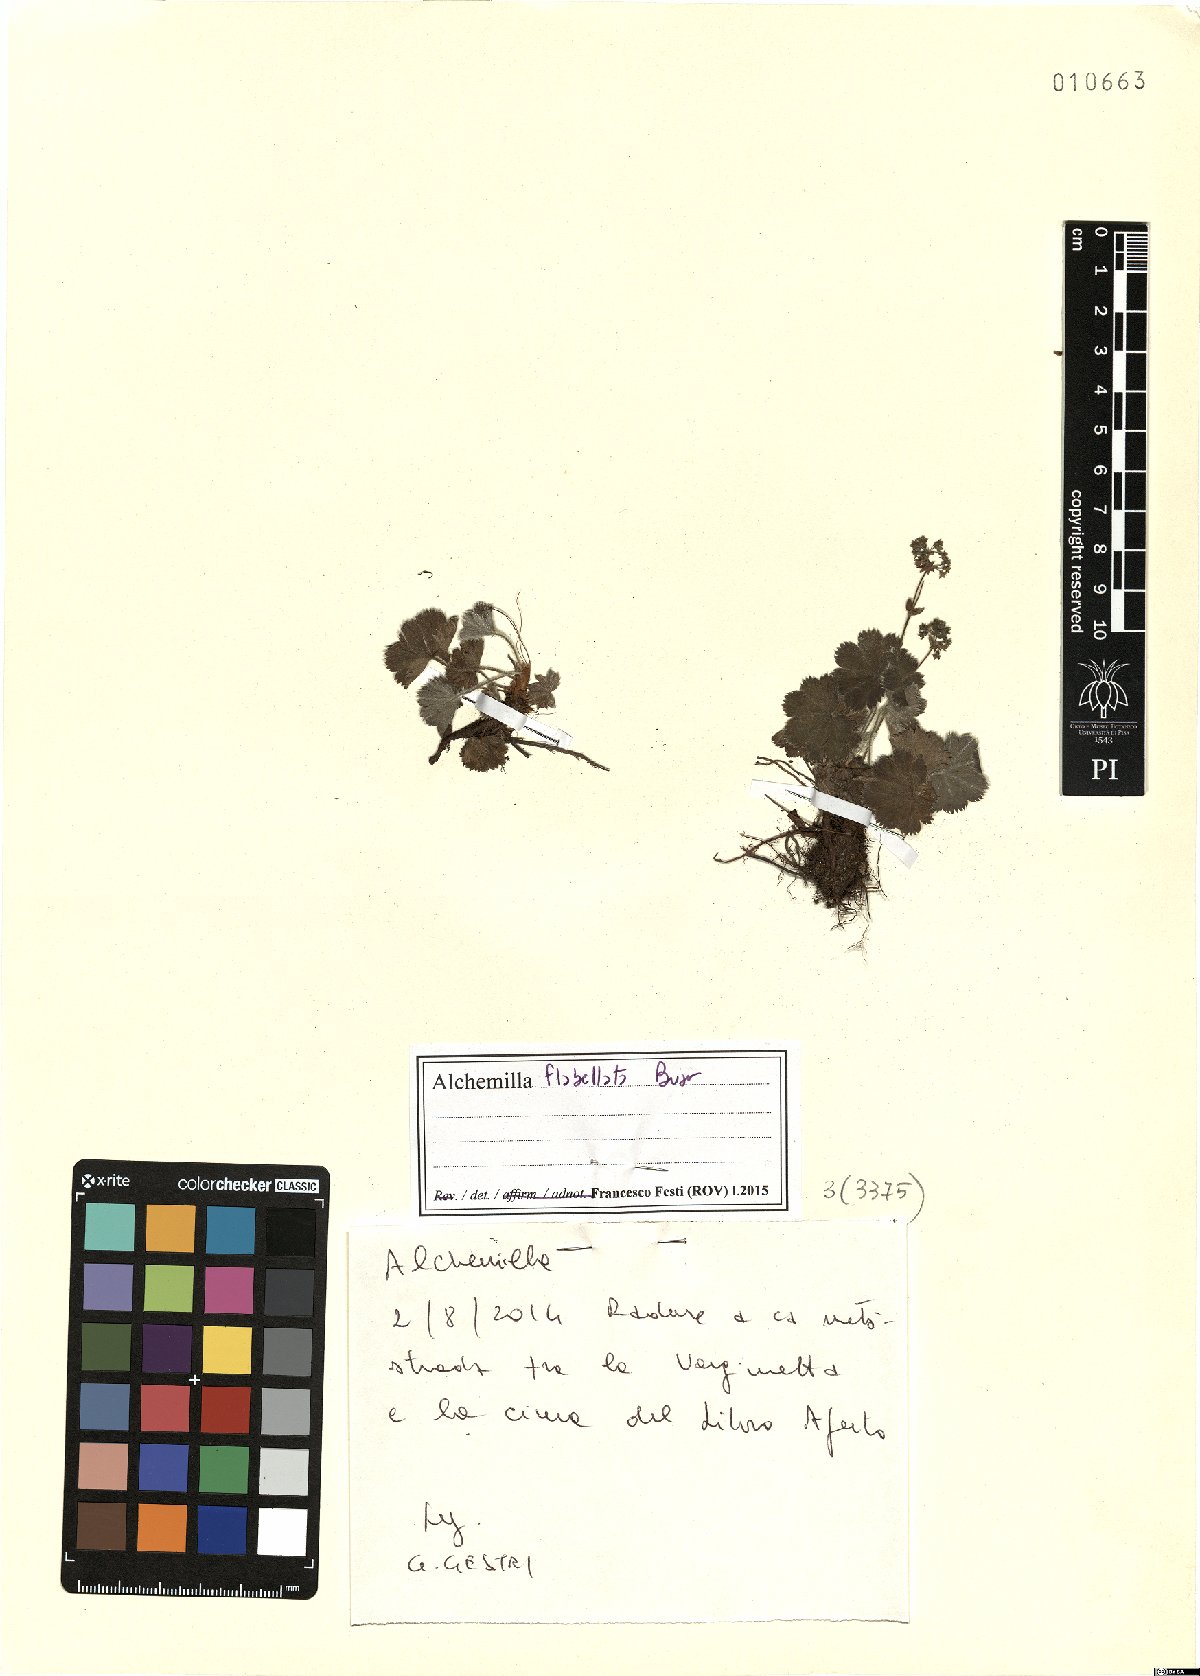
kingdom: Plantae
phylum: Tracheophyta
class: Magnoliopsida
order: Rosales
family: Rosaceae
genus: Alchemilla
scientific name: Alchemilla flabellata
